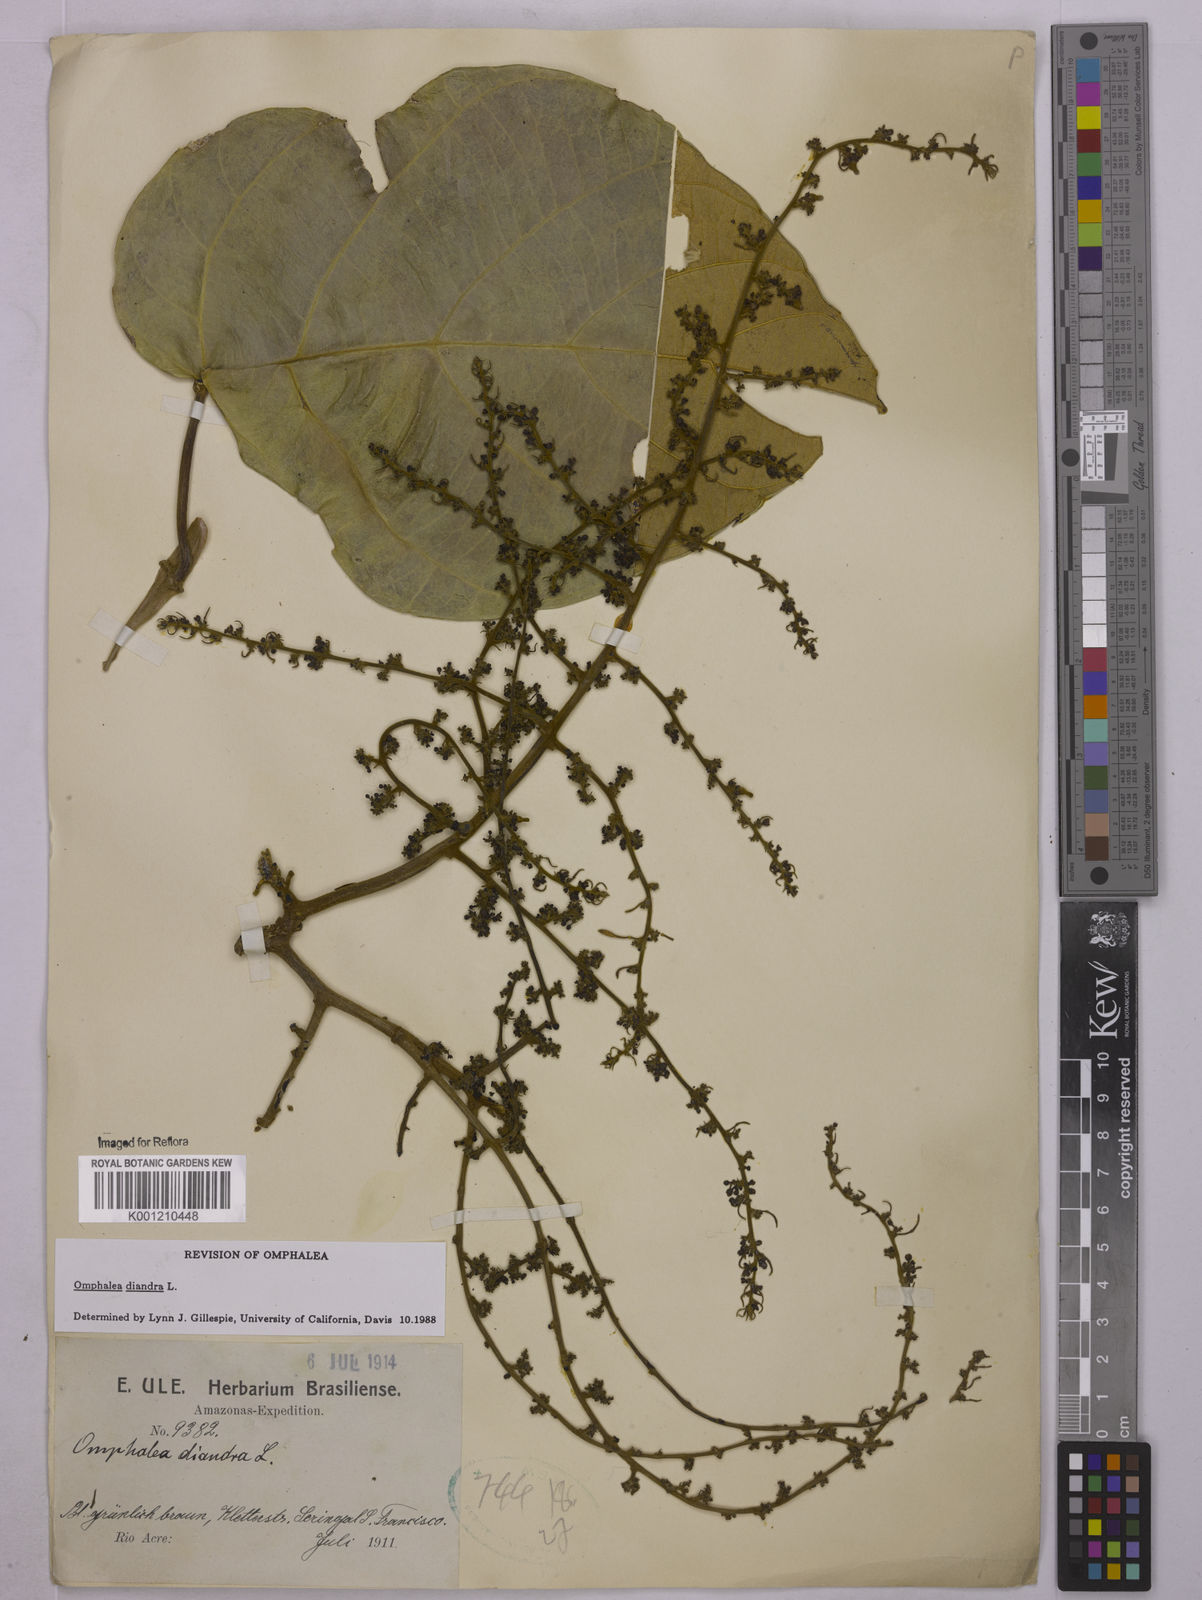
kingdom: Plantae
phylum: Tracheophyta
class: Magnoliopsida
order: Malpighiales
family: Euphorbiaceae
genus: Omphalea
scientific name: Omphalea diandra
